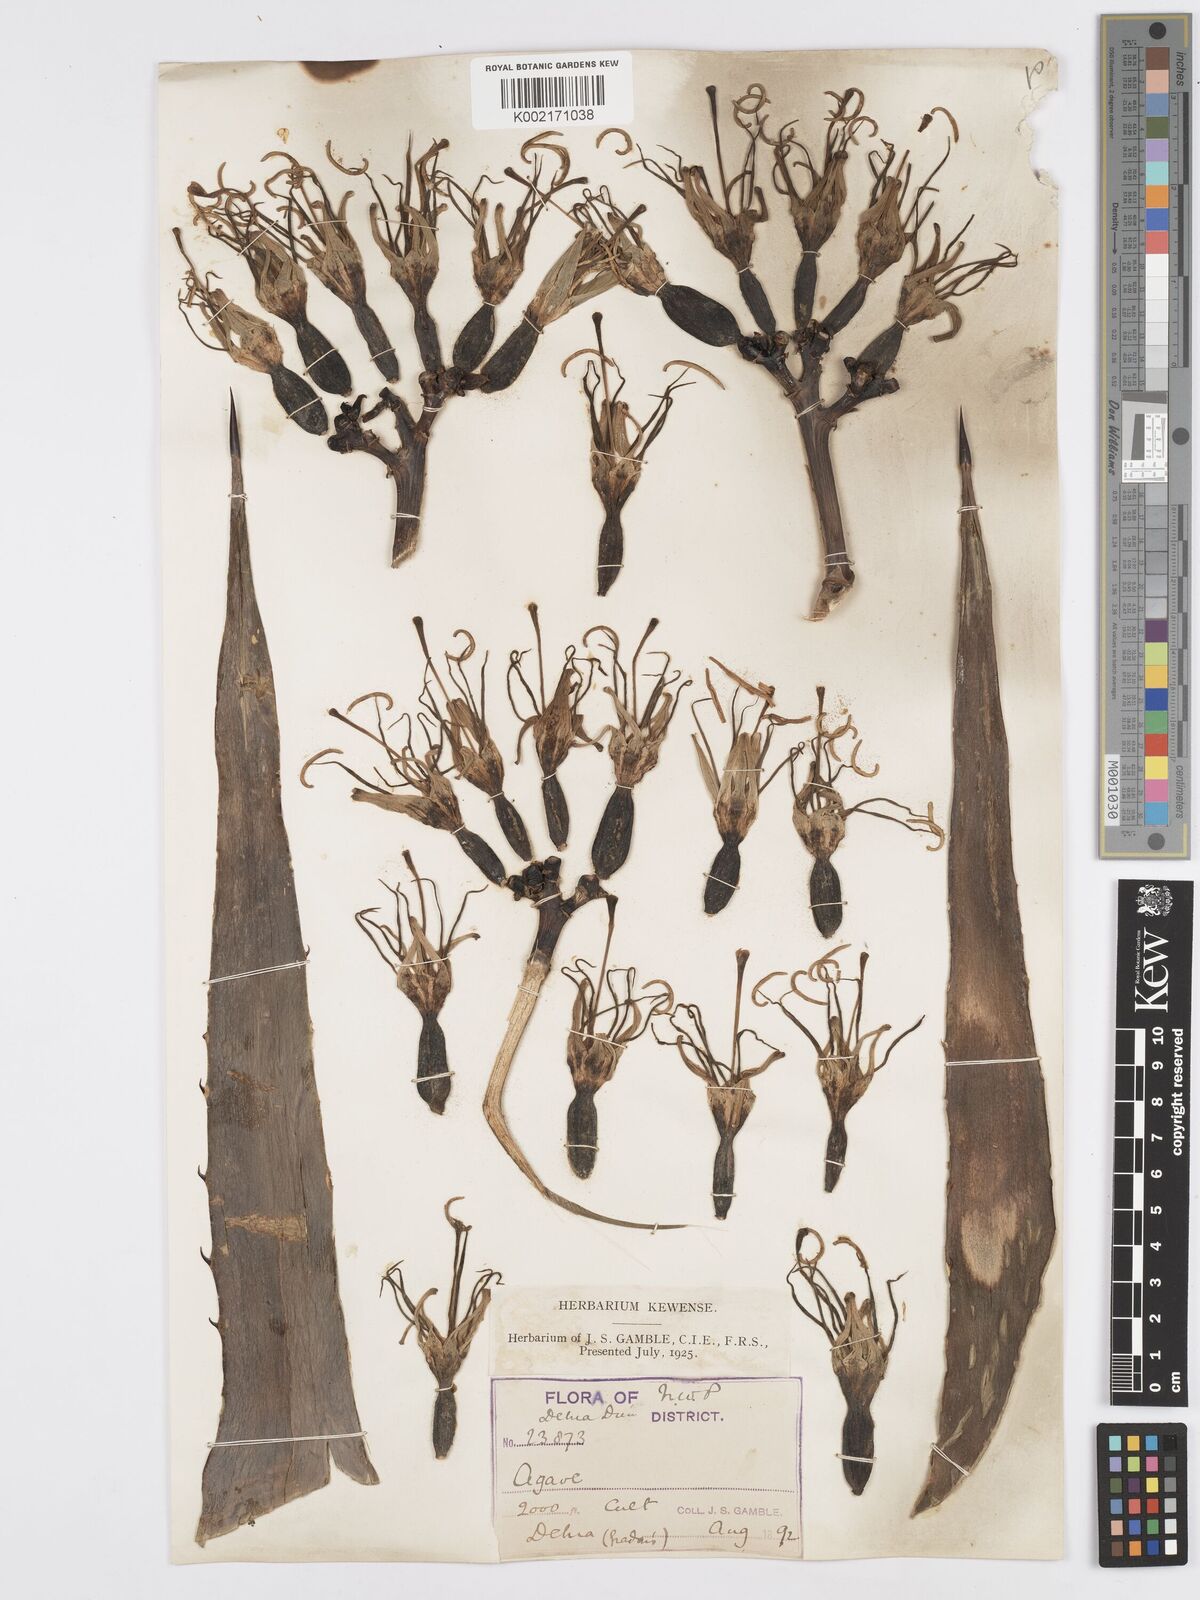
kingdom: Plantae
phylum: Tracheophyta
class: Liliopsida
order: Asparagales
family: Asparagaceae
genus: Agave
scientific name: Agave americana
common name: Centuryplant
